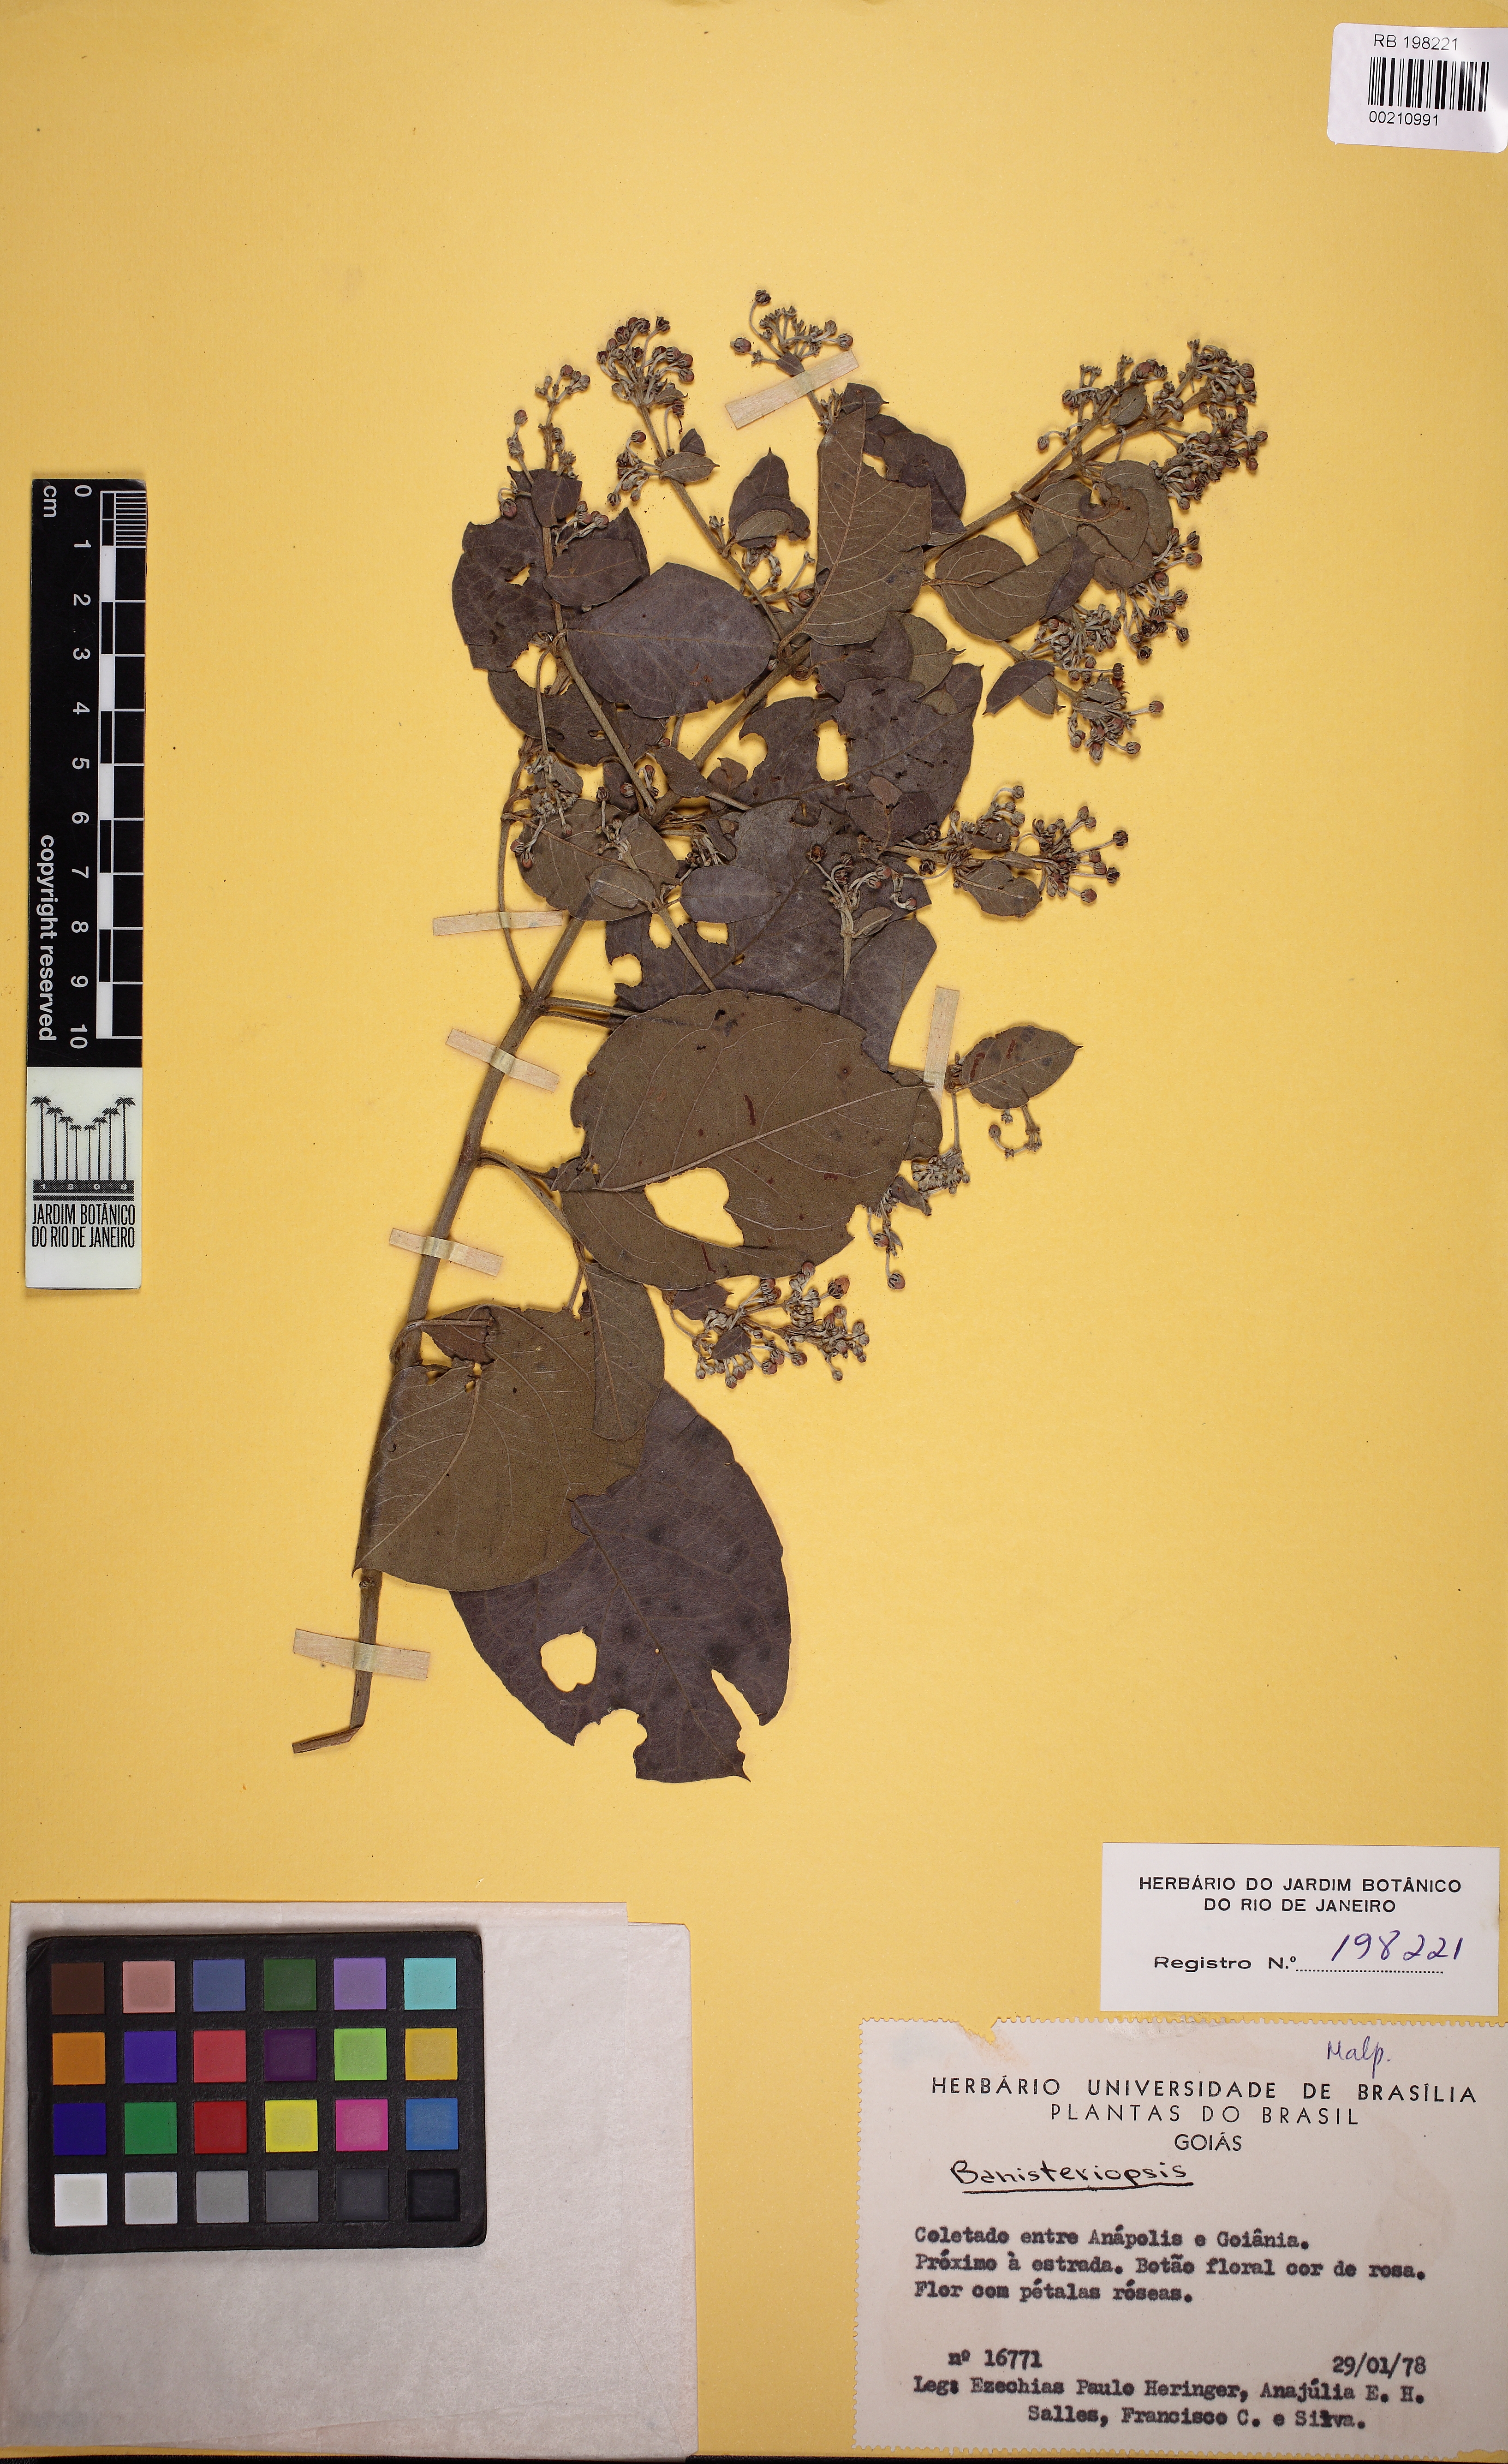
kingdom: Plantae
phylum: Tracheophyta
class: Magnoliopsida
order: Malpighiales
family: Malpighiaceae
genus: Banisteriopsis
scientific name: Banisteriopsis muricata
